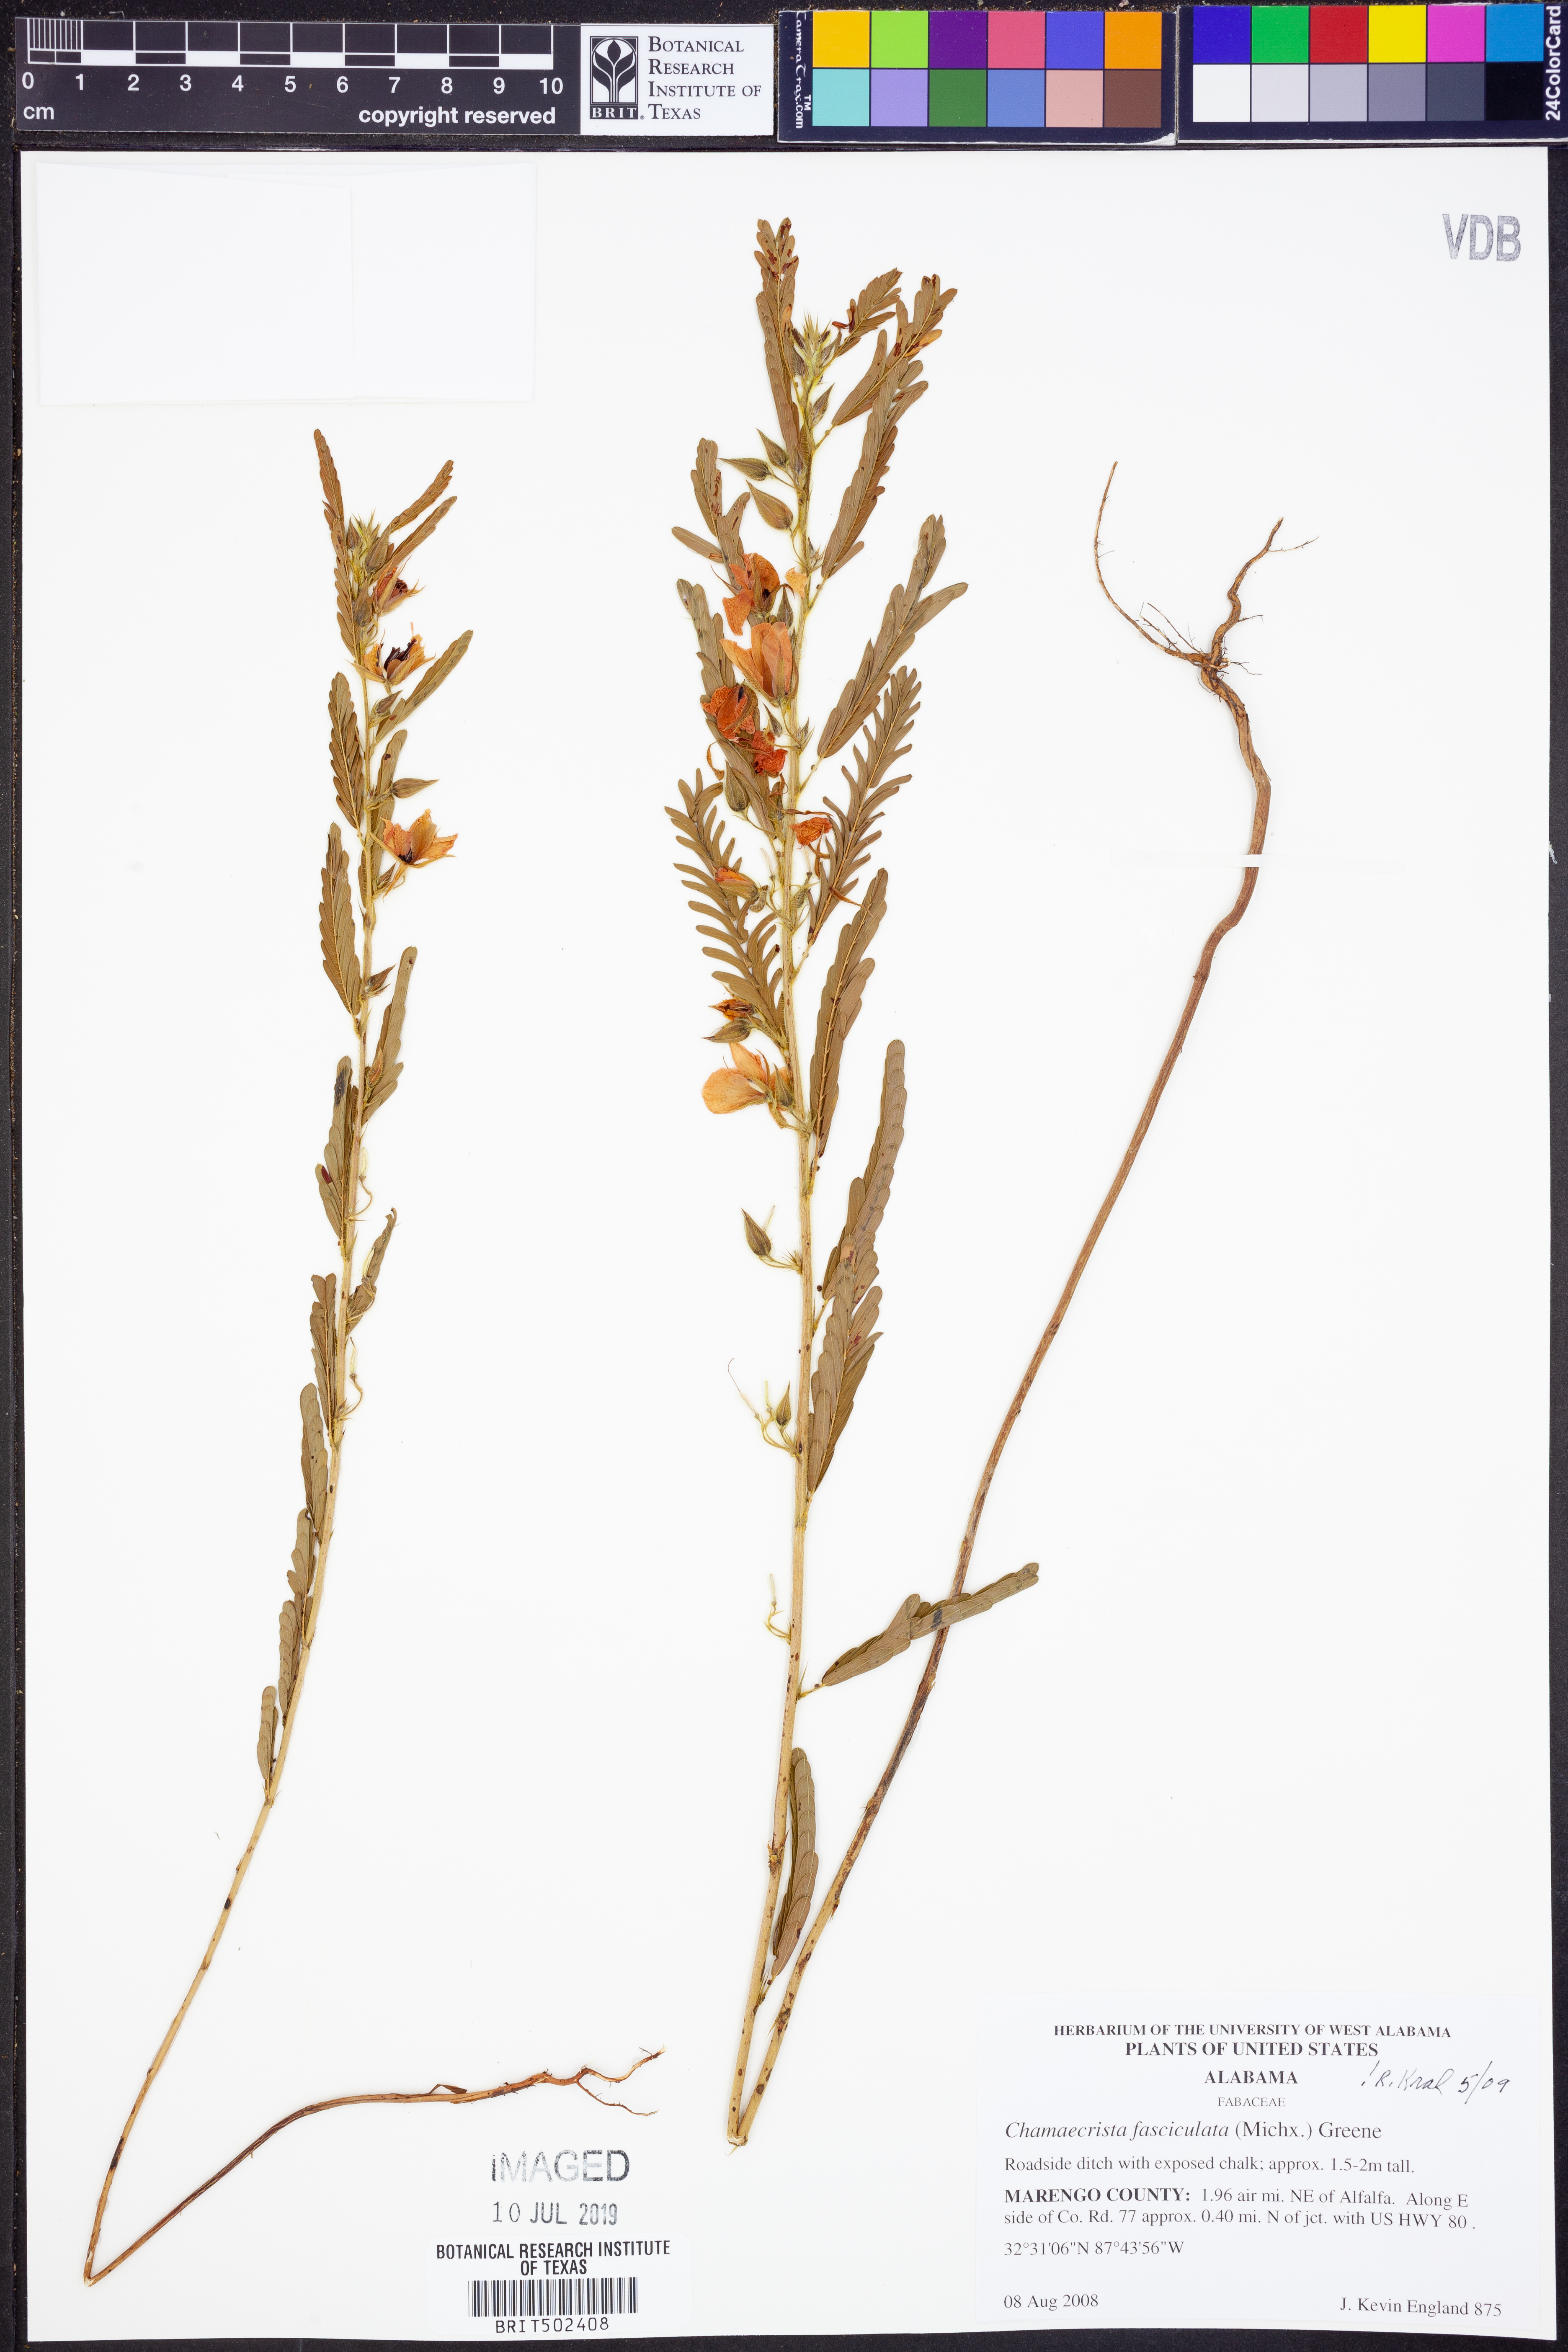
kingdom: Plantae
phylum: Tracheophyta
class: Magnoliopsida
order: Fabales
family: Fabaceae
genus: Chamaecrista
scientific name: Chamaecrista fasciculata
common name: Golden cassia
